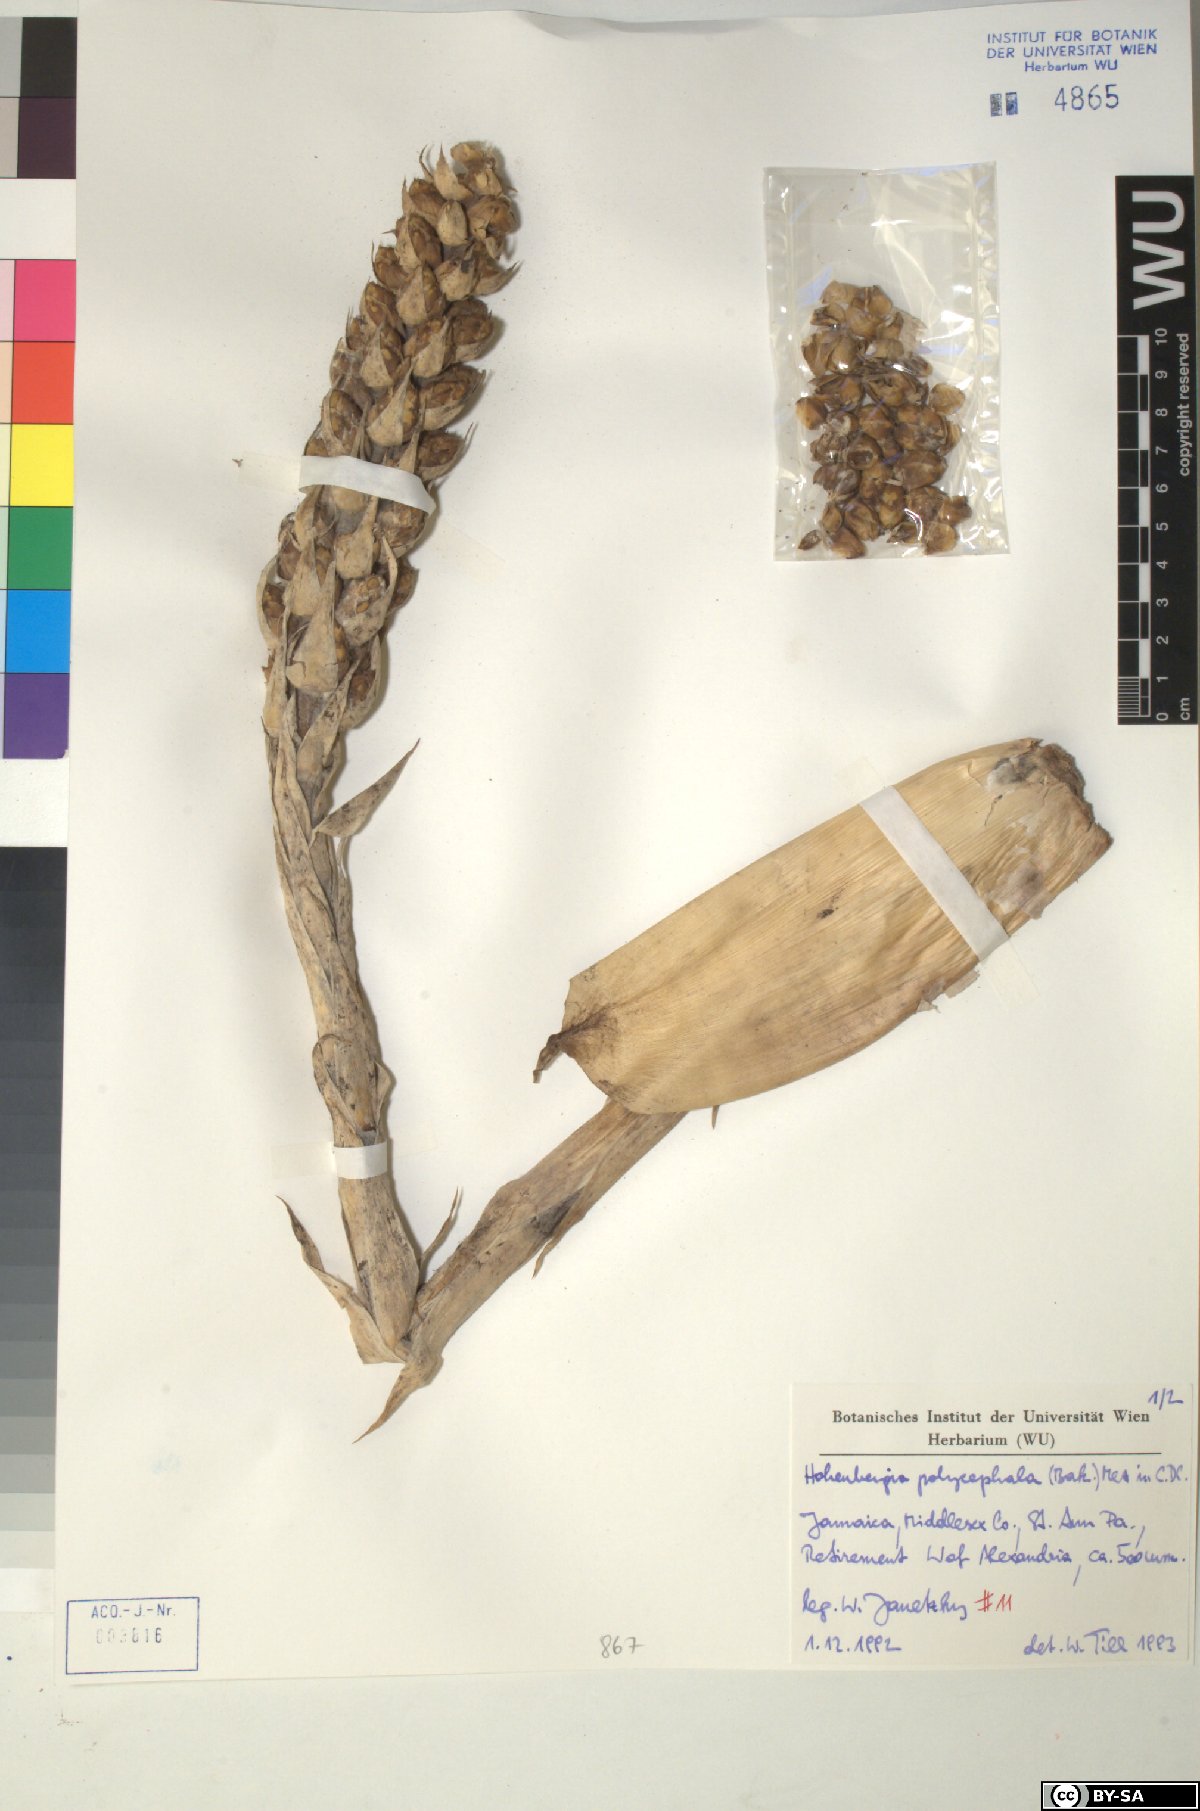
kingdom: Plantae
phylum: Tracheophyta
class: Liliopsida
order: Poales
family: Bromeliaceae
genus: Wittmackia
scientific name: Wittmackia polycephala
